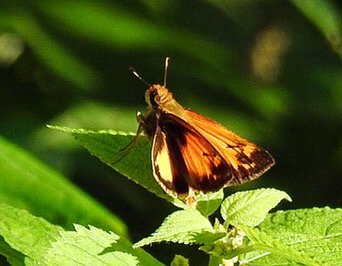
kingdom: Animalia
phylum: Arthropoda
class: Insecta
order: Lepidoptera
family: Hesperiidae
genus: Lon
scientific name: Lon zabulon
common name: Zabulon Skipper
